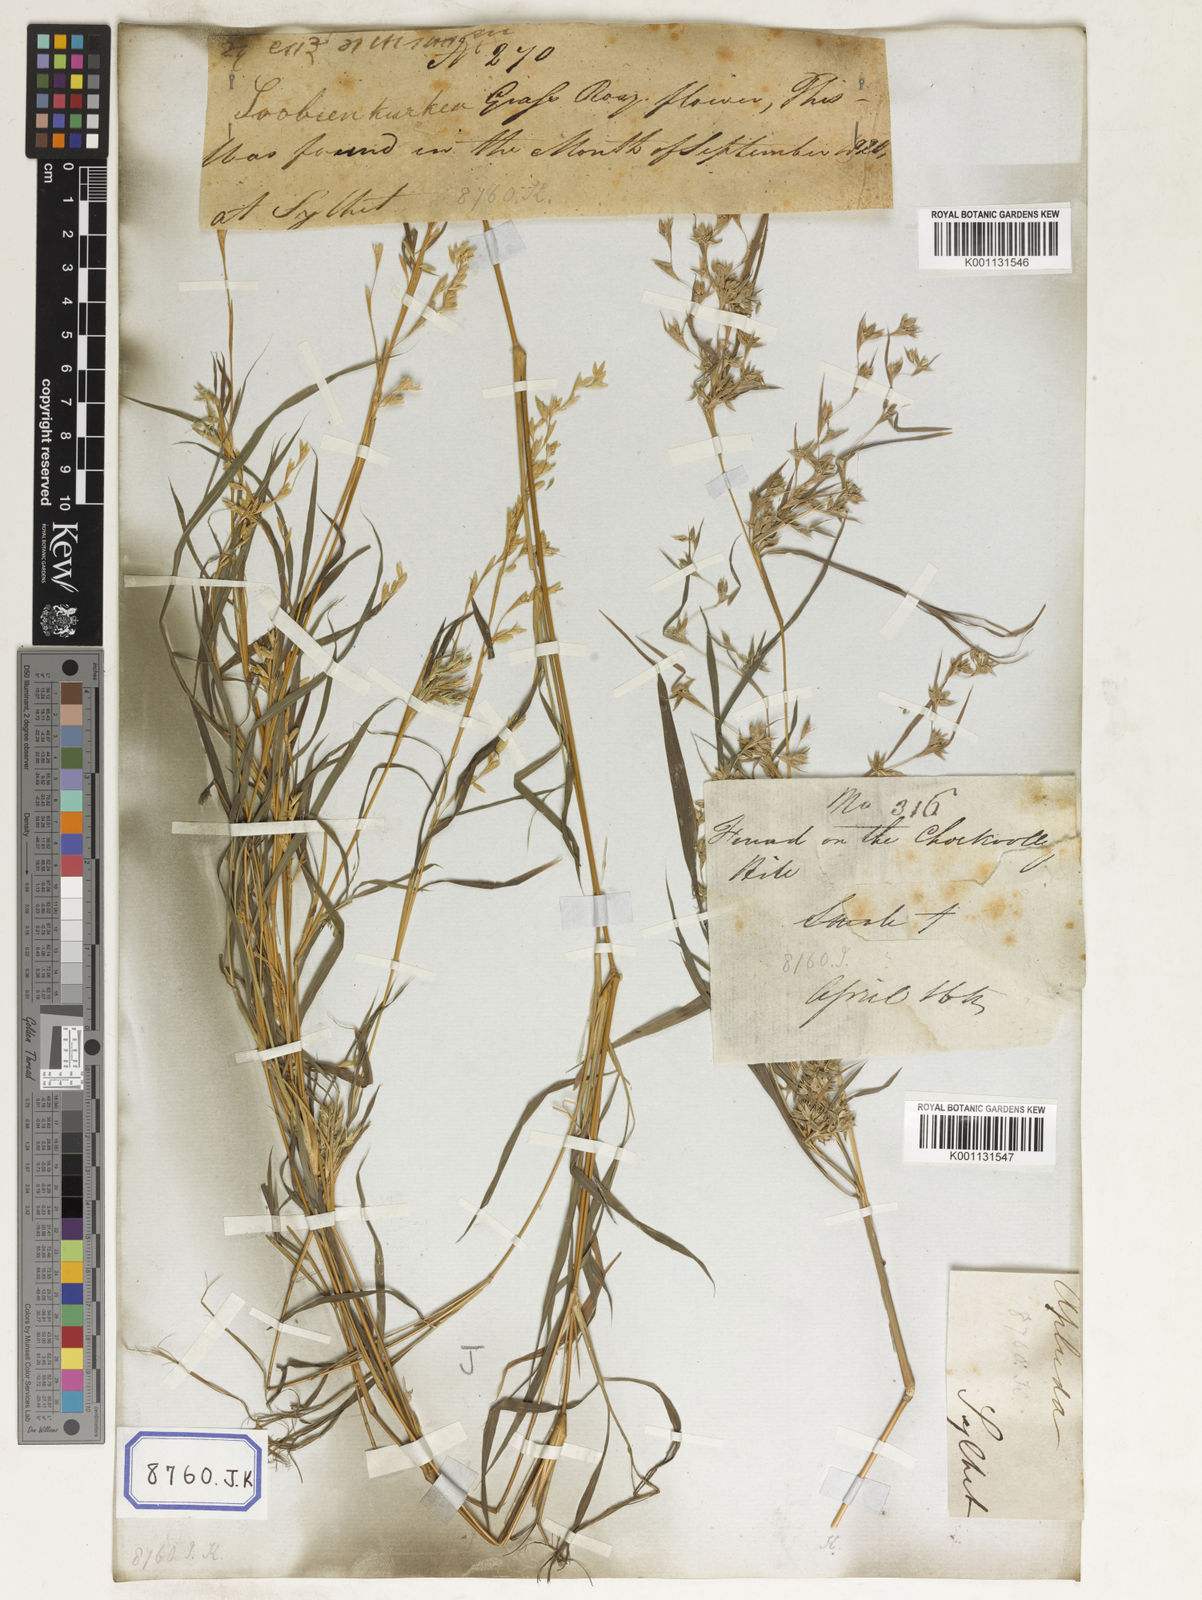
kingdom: Plantae
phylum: Tracheophyta
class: Liliopsida
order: Poales
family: Poaceae
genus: Apluda
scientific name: Apluda
